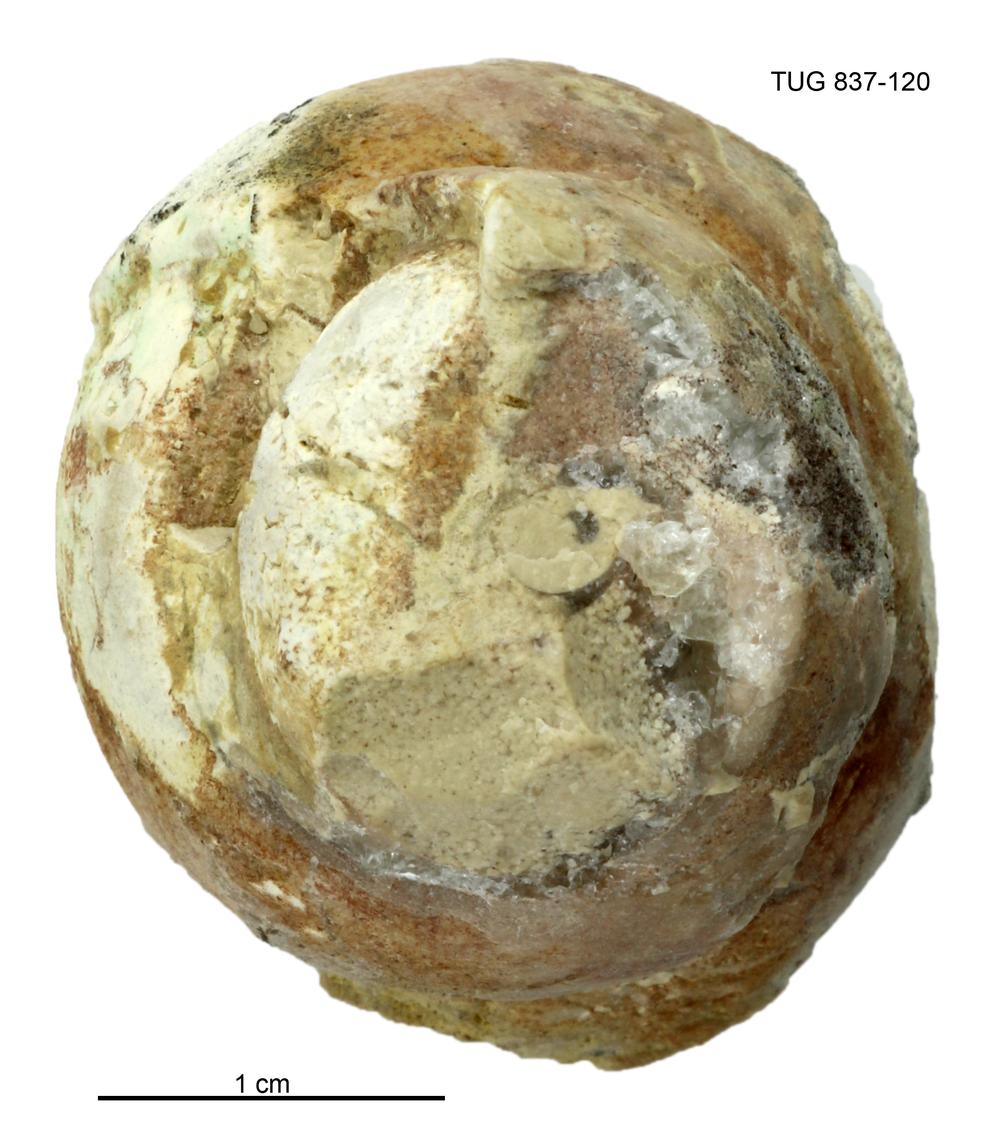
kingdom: Animalia
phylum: Mollusca
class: Gastropoda
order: Pleurotomariida
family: Murchisoniidae
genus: Murchisonia
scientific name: Murchisonia insignis
